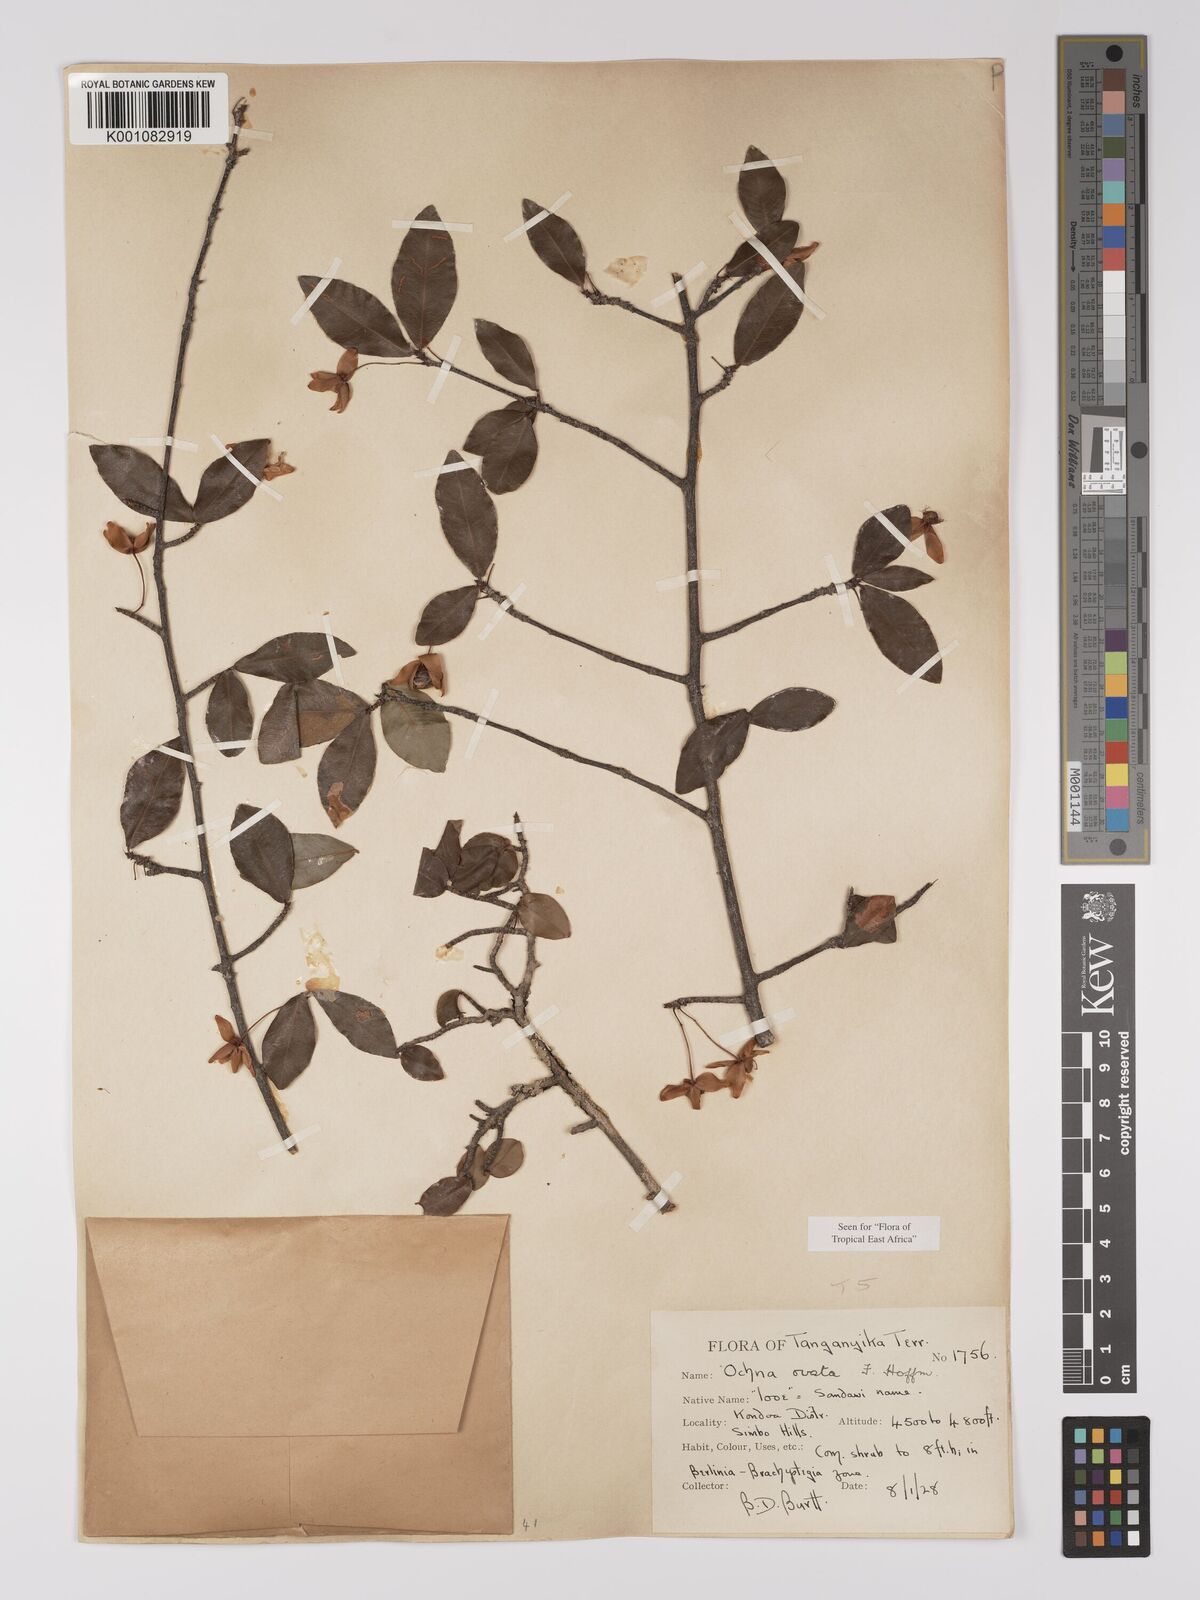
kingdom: Plantae
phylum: Tracheophyta
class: Magnoliopsida
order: Malpighiales
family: Ochnaceae
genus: Ochna
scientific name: Ochna ovata
